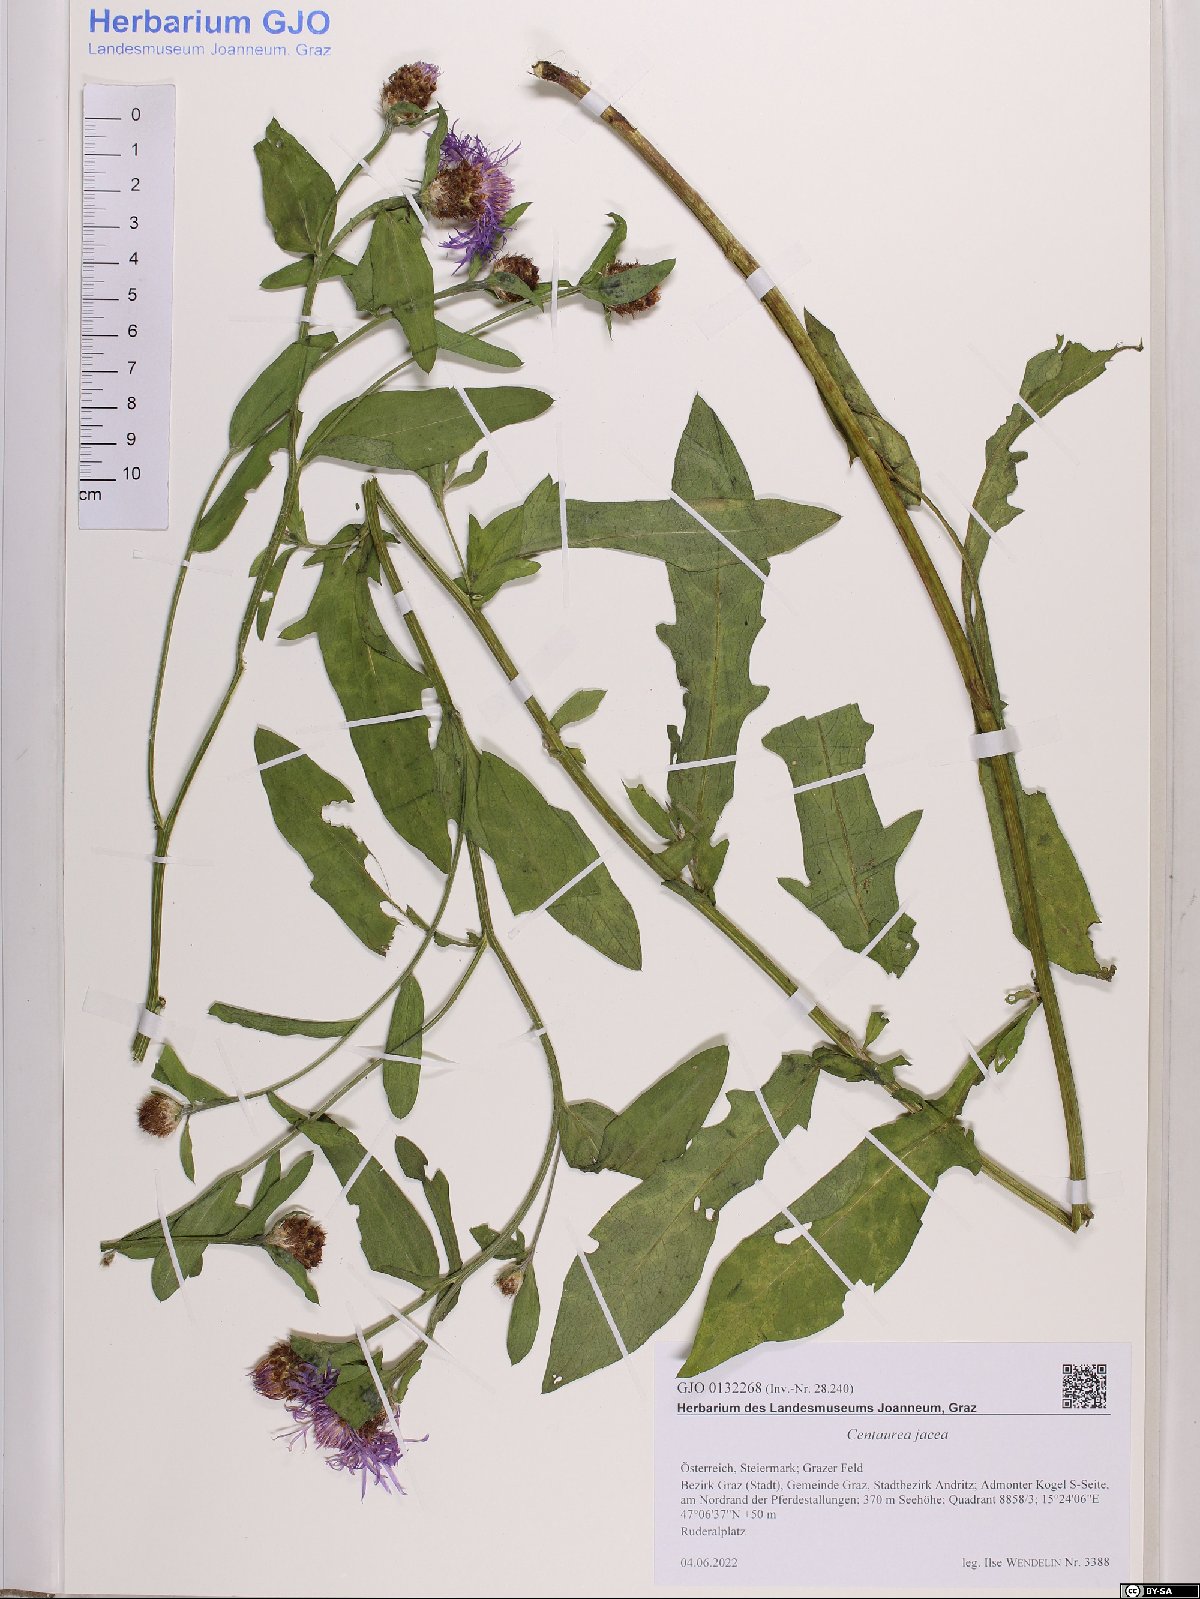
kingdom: Plantae
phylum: Tracheophyta
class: Magnoliopsida
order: Asterales
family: Asteraceae
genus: Centaurea
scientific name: Centaurea jacea
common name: Brown knapweed
